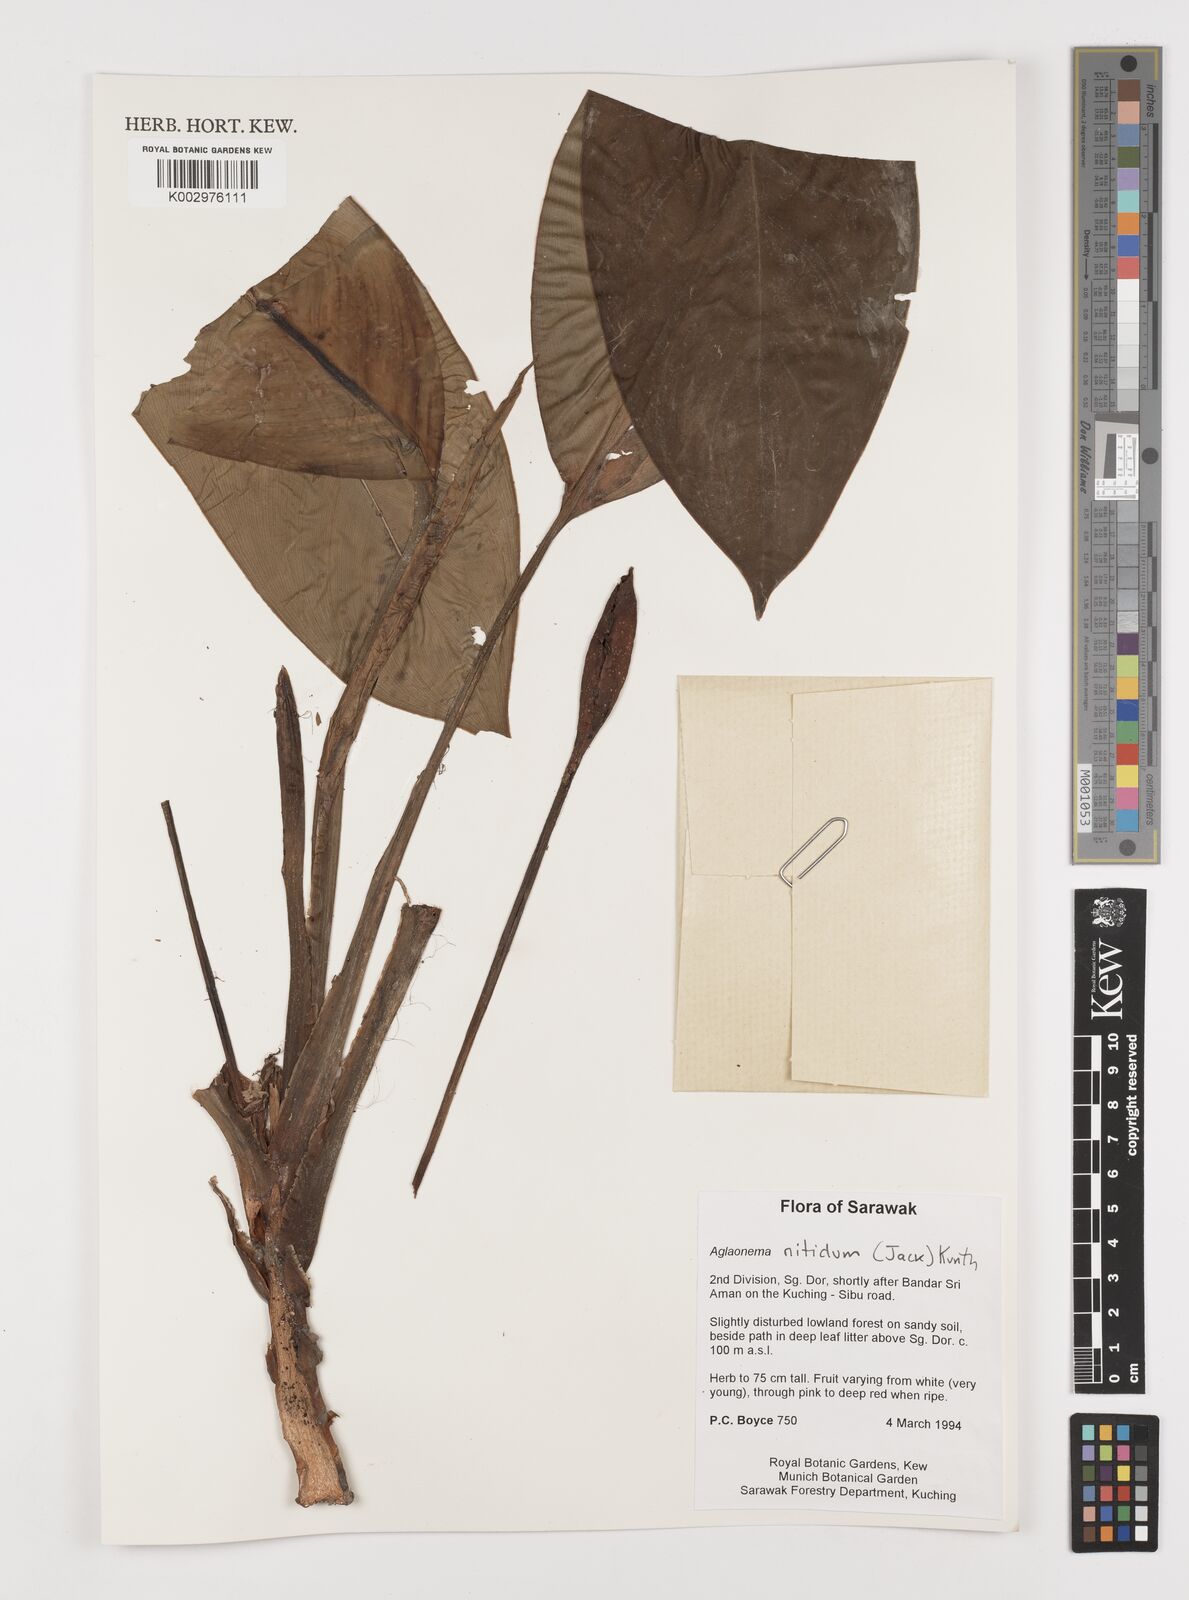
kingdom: Plantae
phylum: Tracheophyta
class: Liliopsida
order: Alismatales
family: Araceae
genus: Aglaonema
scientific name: Aglaonema nitidum
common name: Aglaonema aroid
